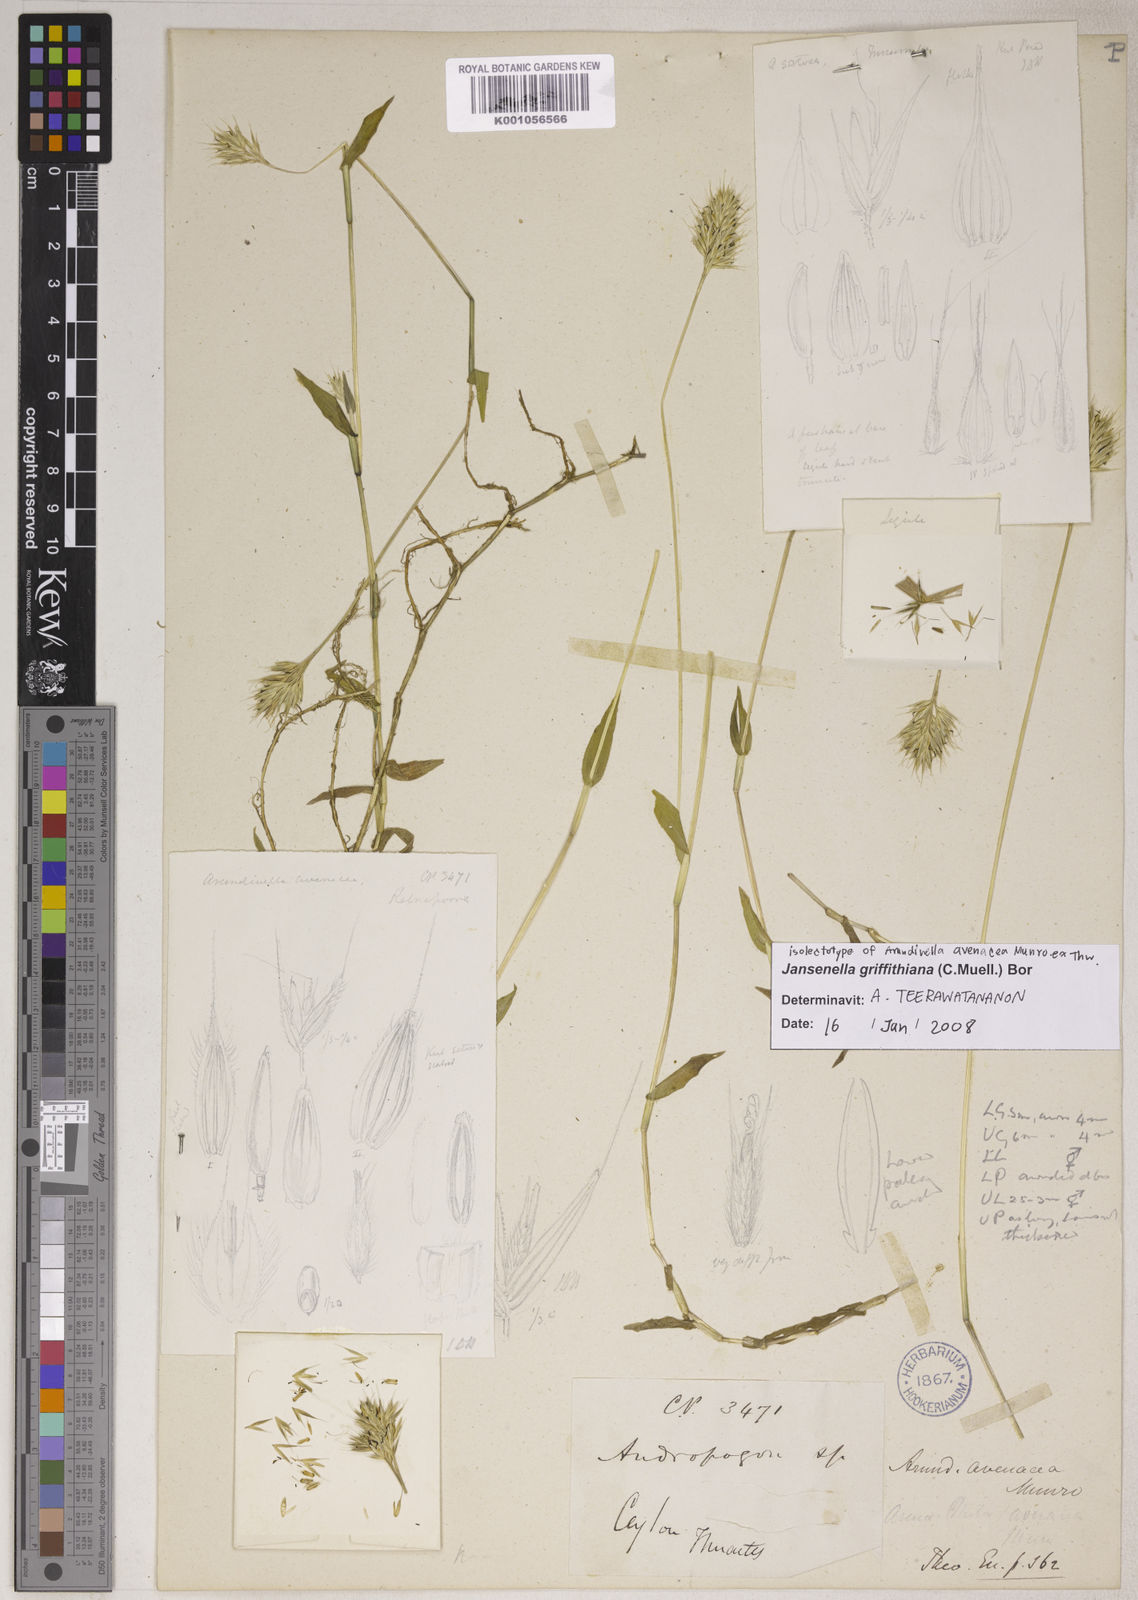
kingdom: Plantae
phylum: Tracheophyta
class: Liliopsida
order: Poales
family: Poaceae
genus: Jansenella
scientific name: Jansenella griffithiana
